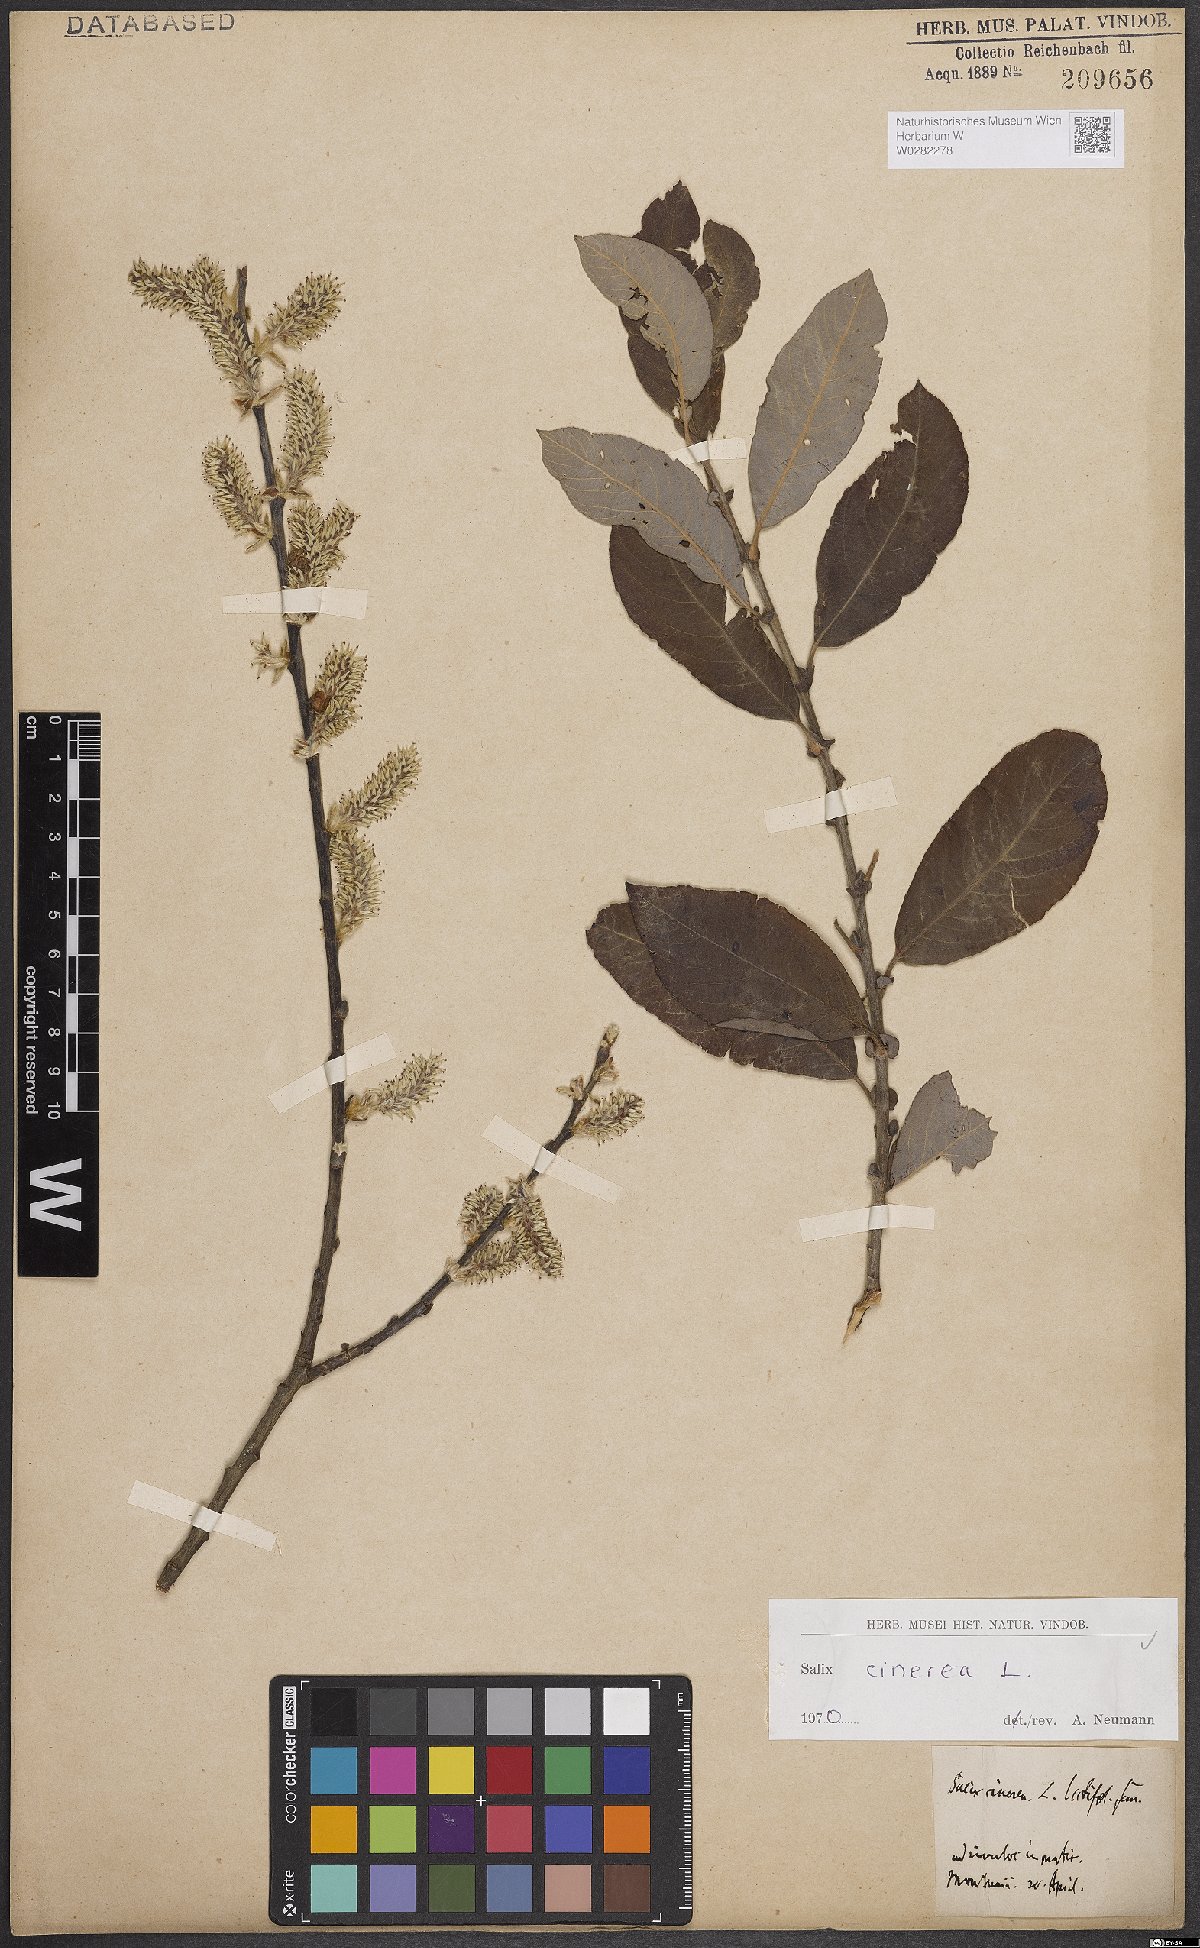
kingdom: Plantae
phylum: Tracheophyta
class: Magnoliopsida
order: Malpighiales
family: Salicaceae
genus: Salix
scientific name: Salix cinerea
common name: Common sallow
